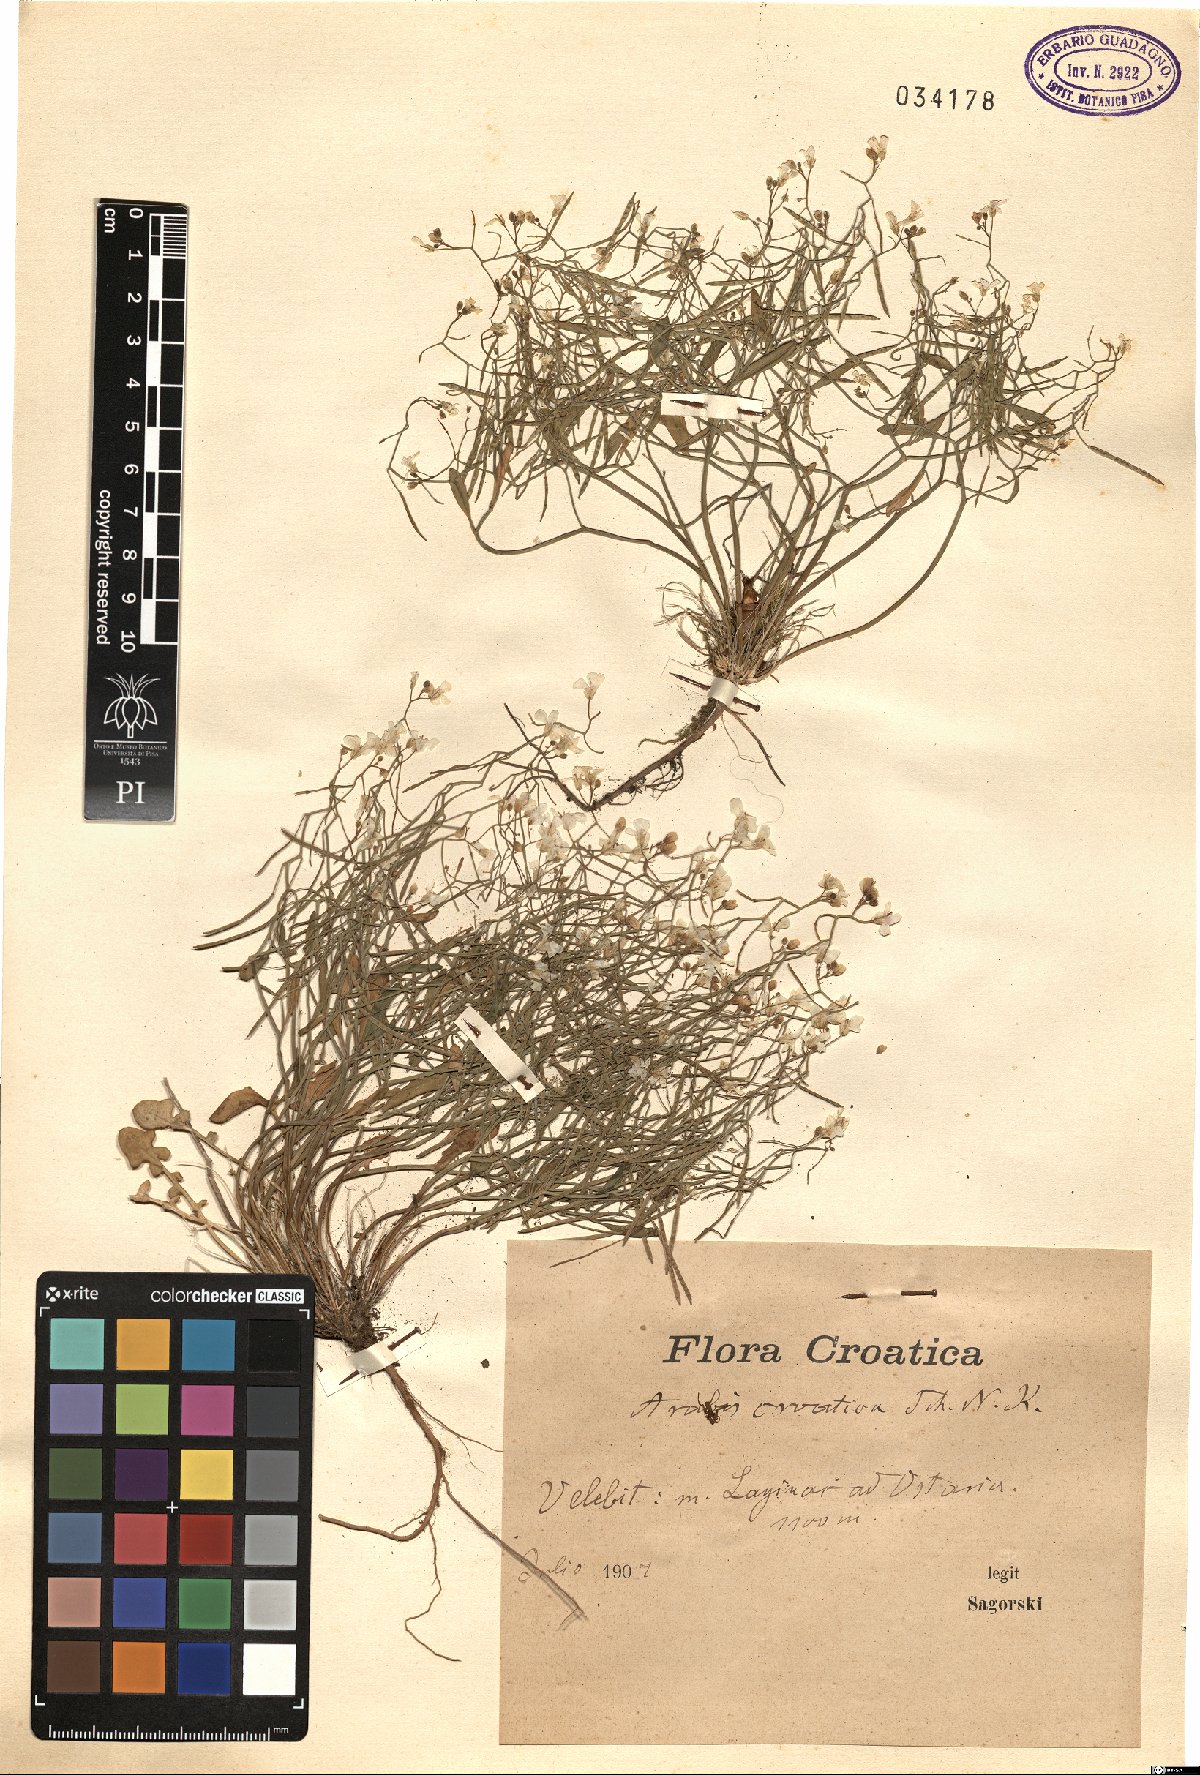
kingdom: Plantae
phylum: Tracheophyta
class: Magnoliopsida
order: Brassicales
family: Brassicaceae
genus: Arabidopsis
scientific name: Arabidopsis croatica
